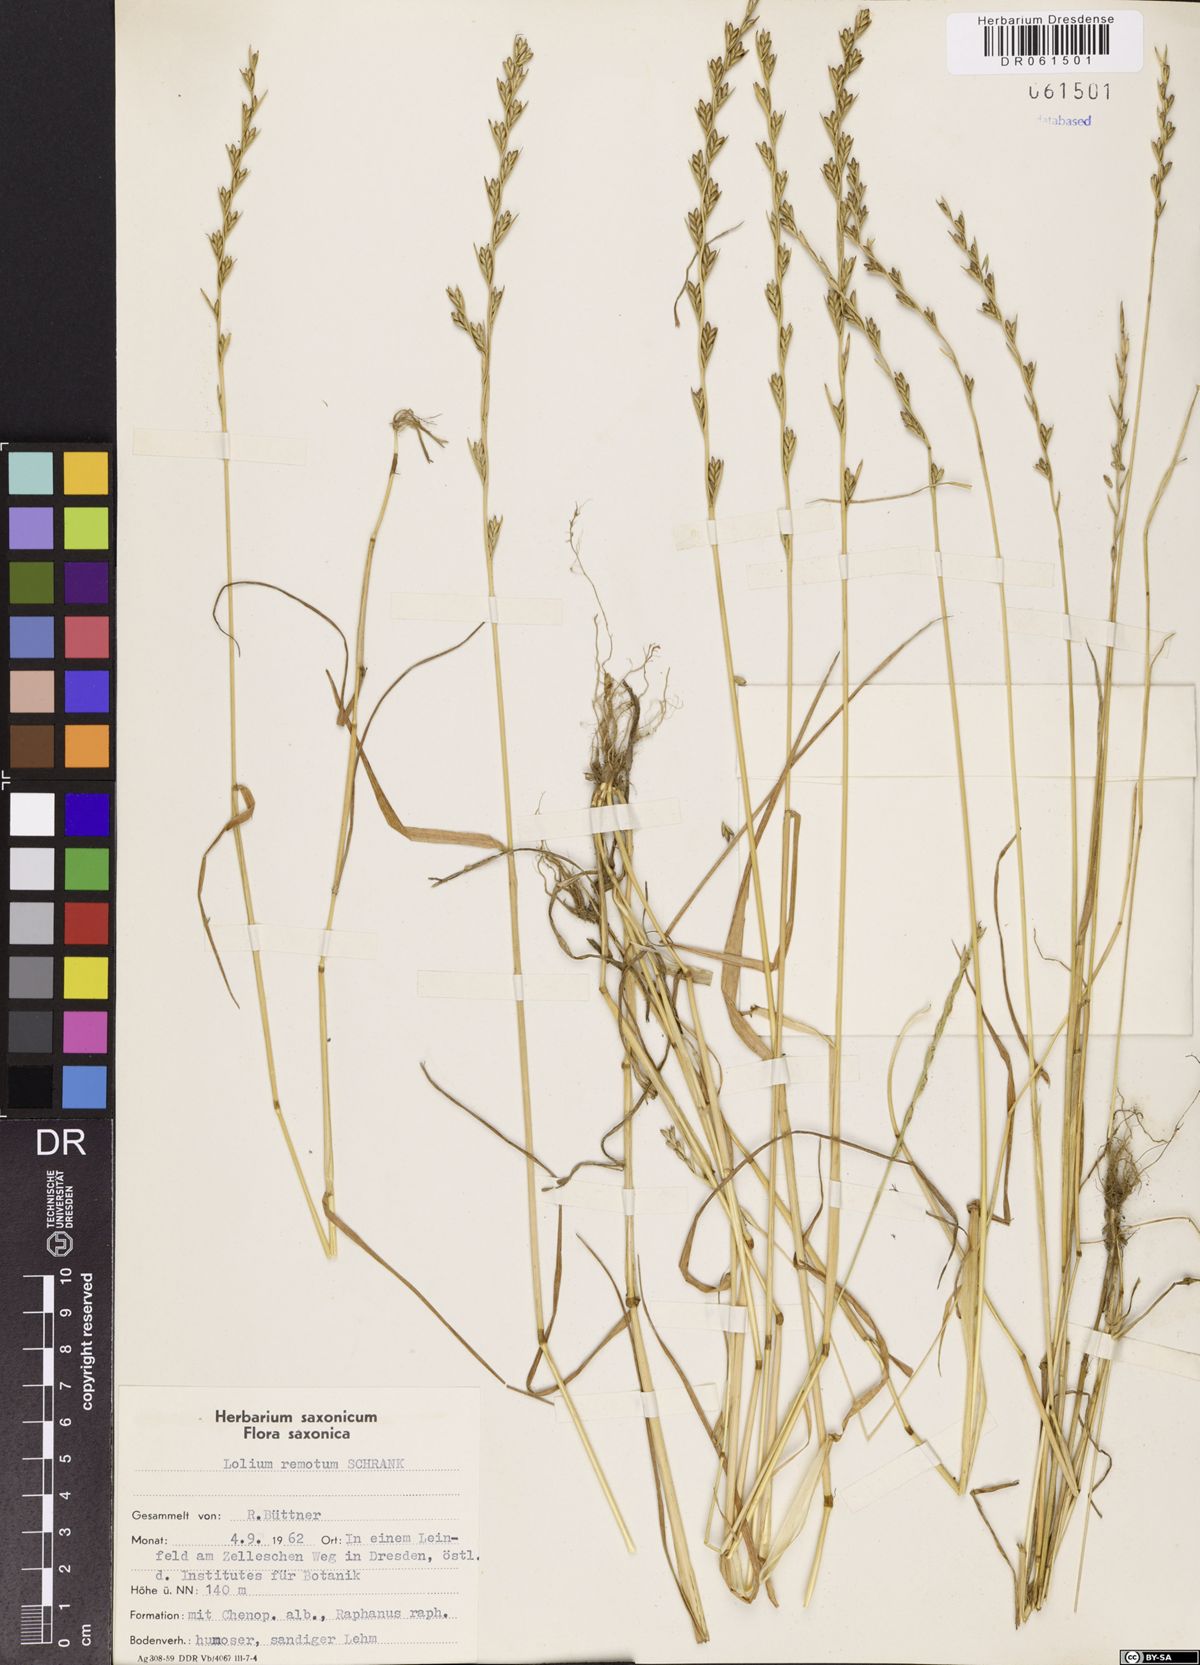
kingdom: Plantae
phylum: Tracheophyta
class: Liliopsida
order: Poales
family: Poaceae
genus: Lolium
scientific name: Lolium remotum
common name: Flaxfield rye-grass
